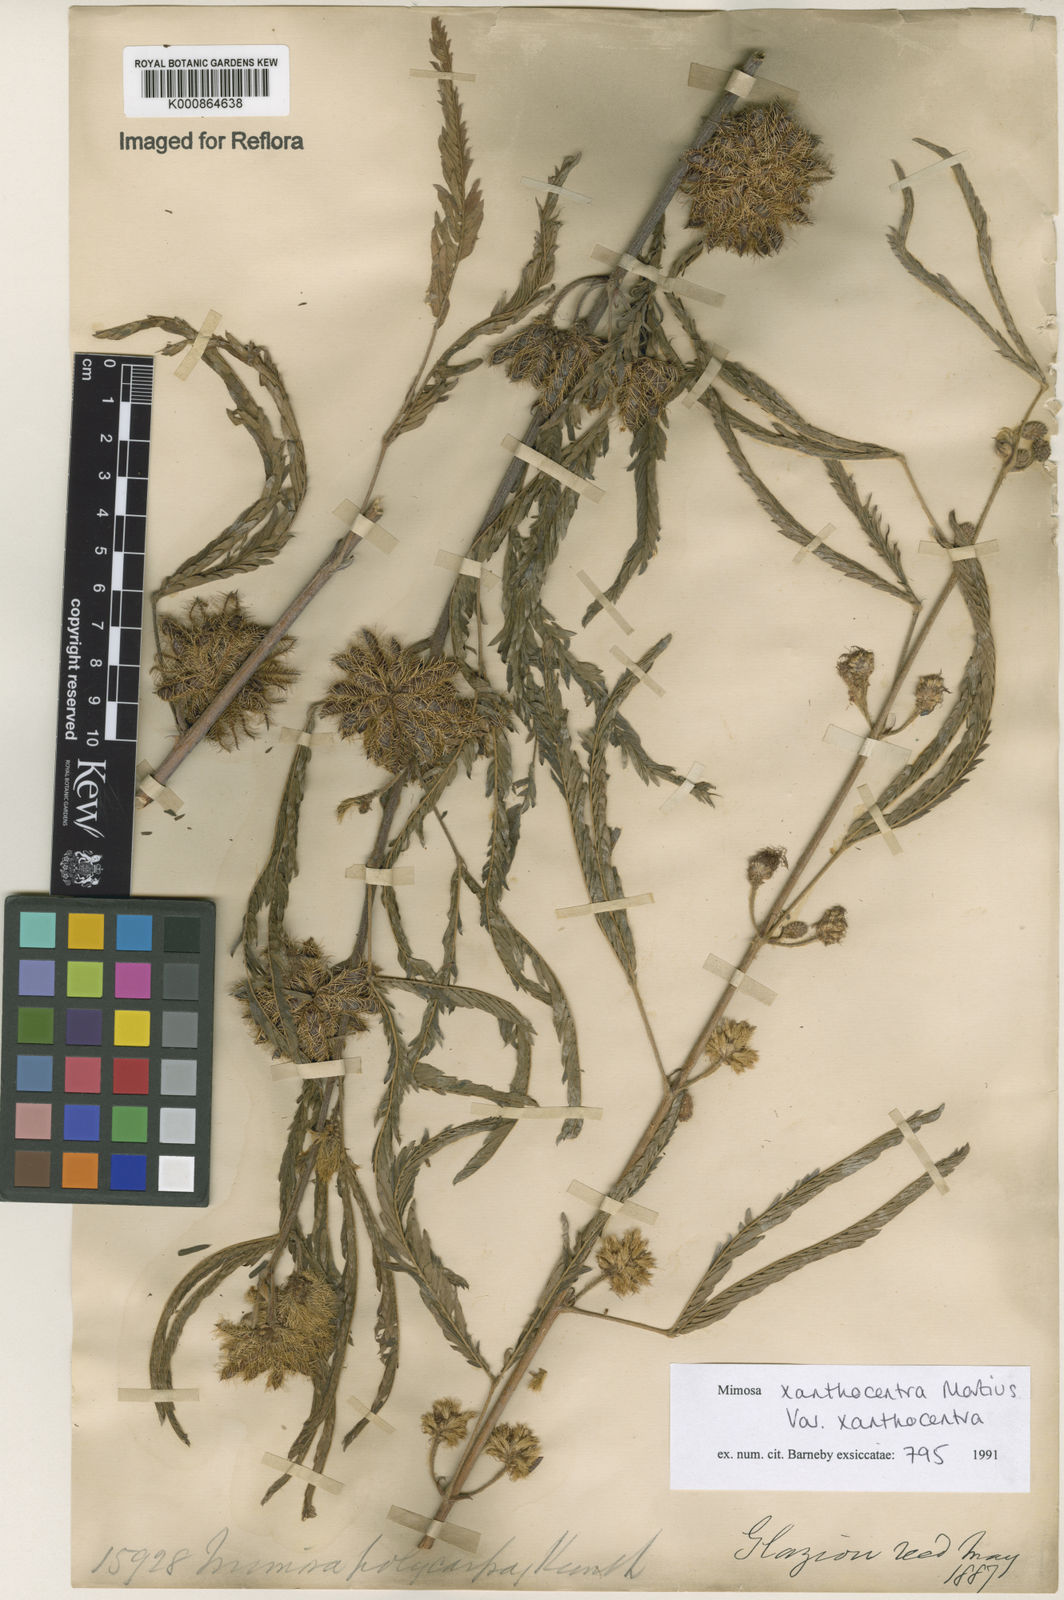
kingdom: Plantae
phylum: Tracheophyta
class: Magnoliopsida
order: Fabales
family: Fabaceae
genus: Mimosa
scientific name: Mimosa xanthocentra
